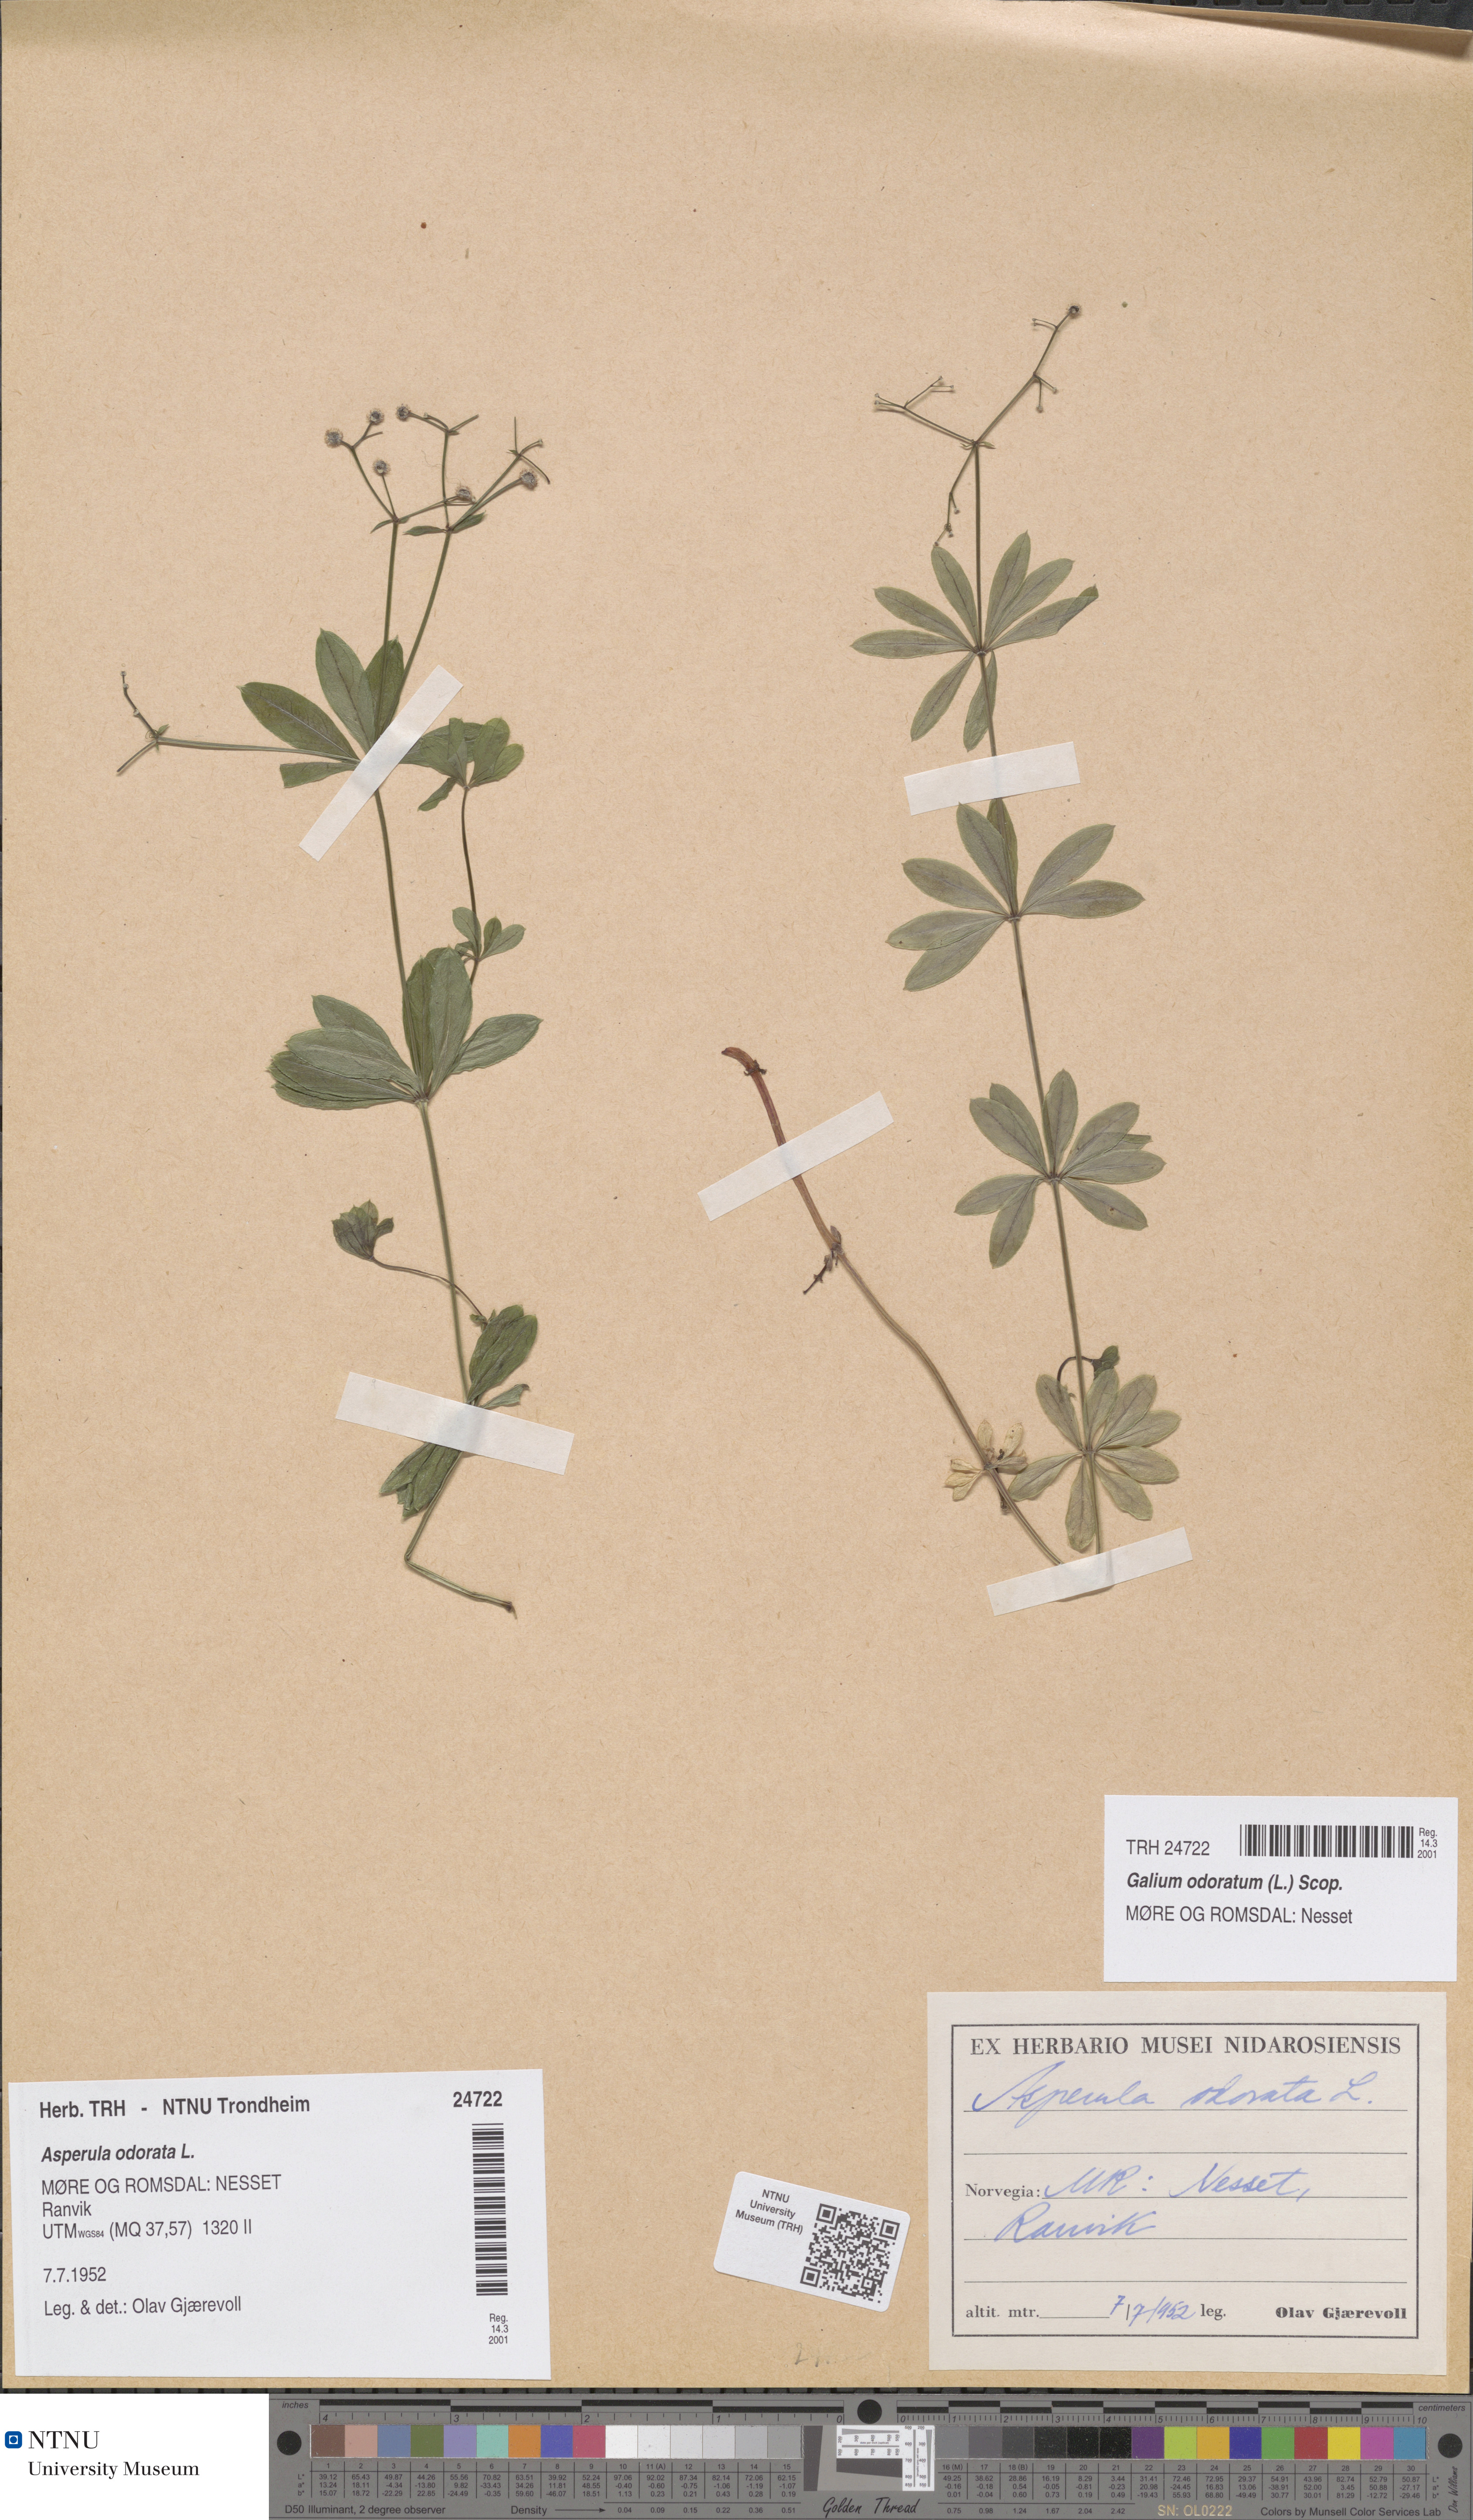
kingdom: Plantae
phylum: Tracheophyta
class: Magnoliopsida
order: Gentianales
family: Rubiaceae
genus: Galium
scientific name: Galium odoratum
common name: Sweet woodruff
